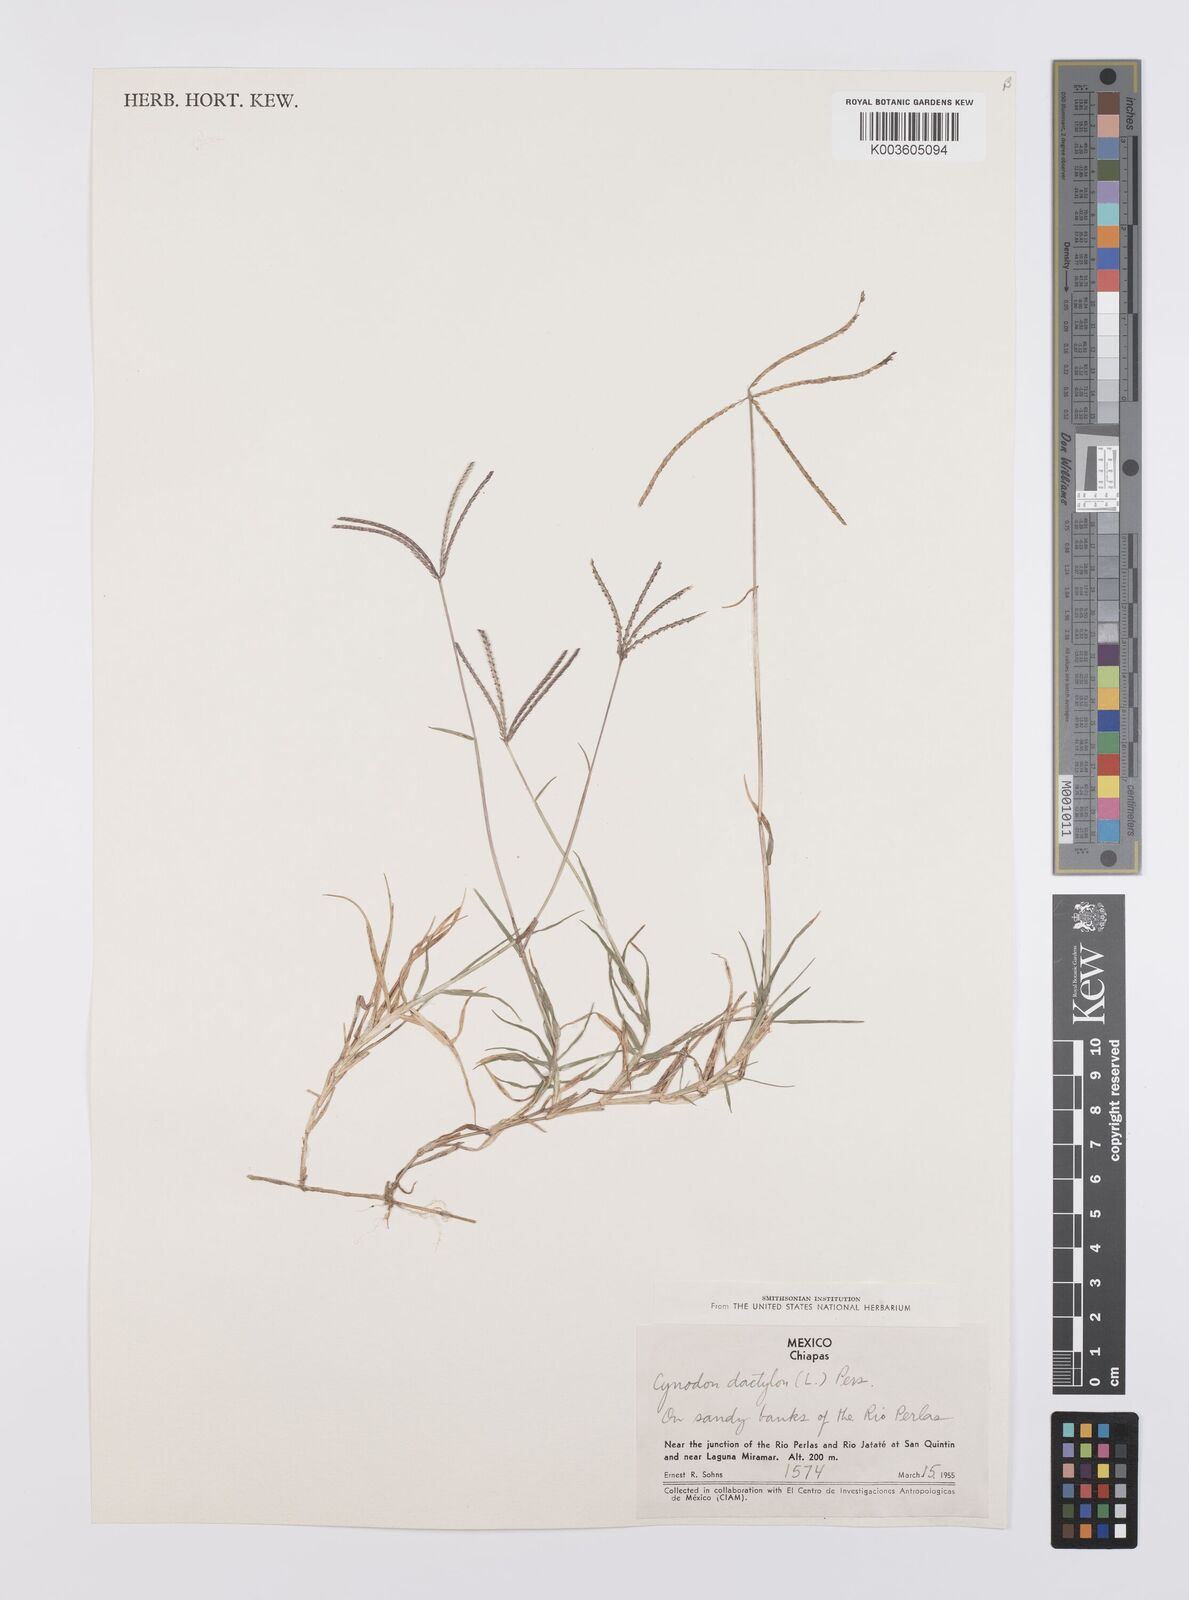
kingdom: Plantae
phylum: Tracheophyta
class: Liliopsida
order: Poales
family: Poaceae
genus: Cynodon
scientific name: Cynodon dactylon
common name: Bermuda grass
